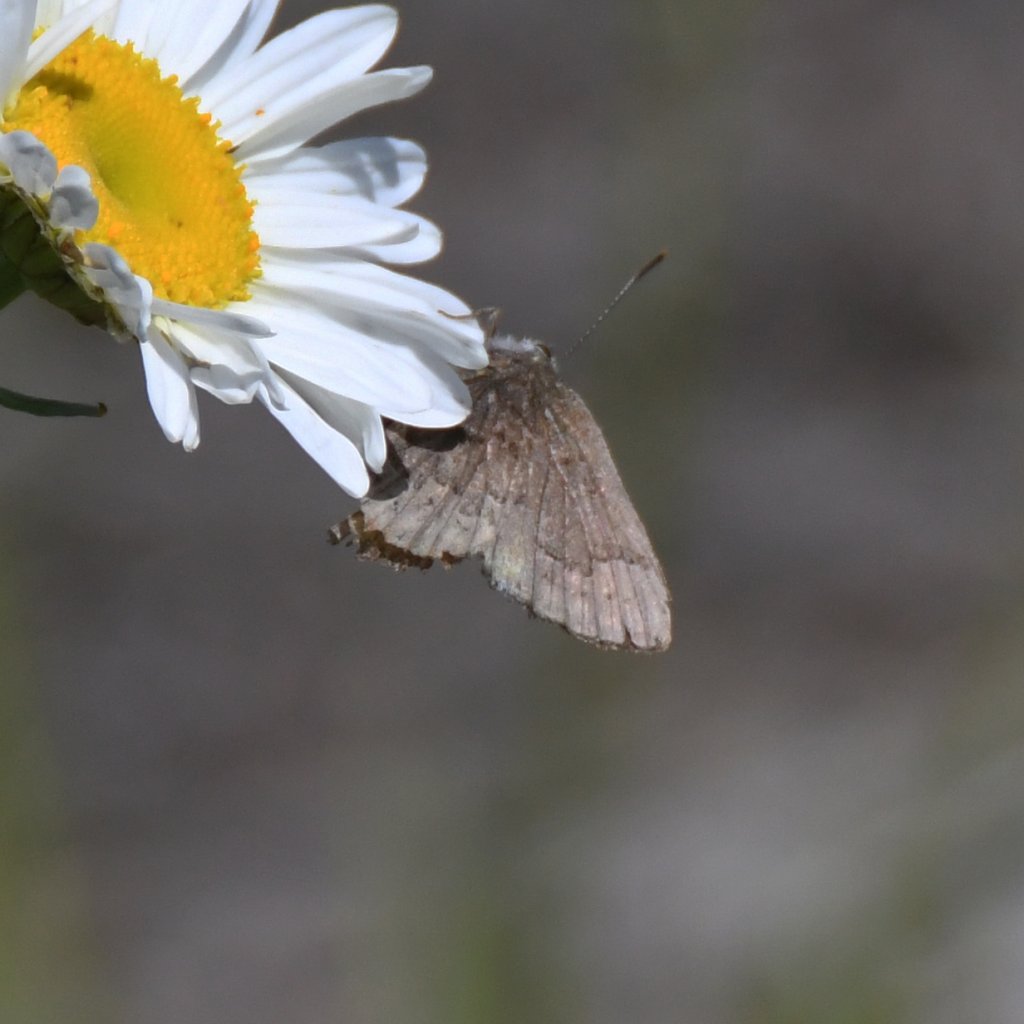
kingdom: Animalia
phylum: Arthropoda
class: Insecta
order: Lepidoptera
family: Lycaenidae
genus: Incisalia
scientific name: Incisalia niphon
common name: Eastern Pine Elfin
